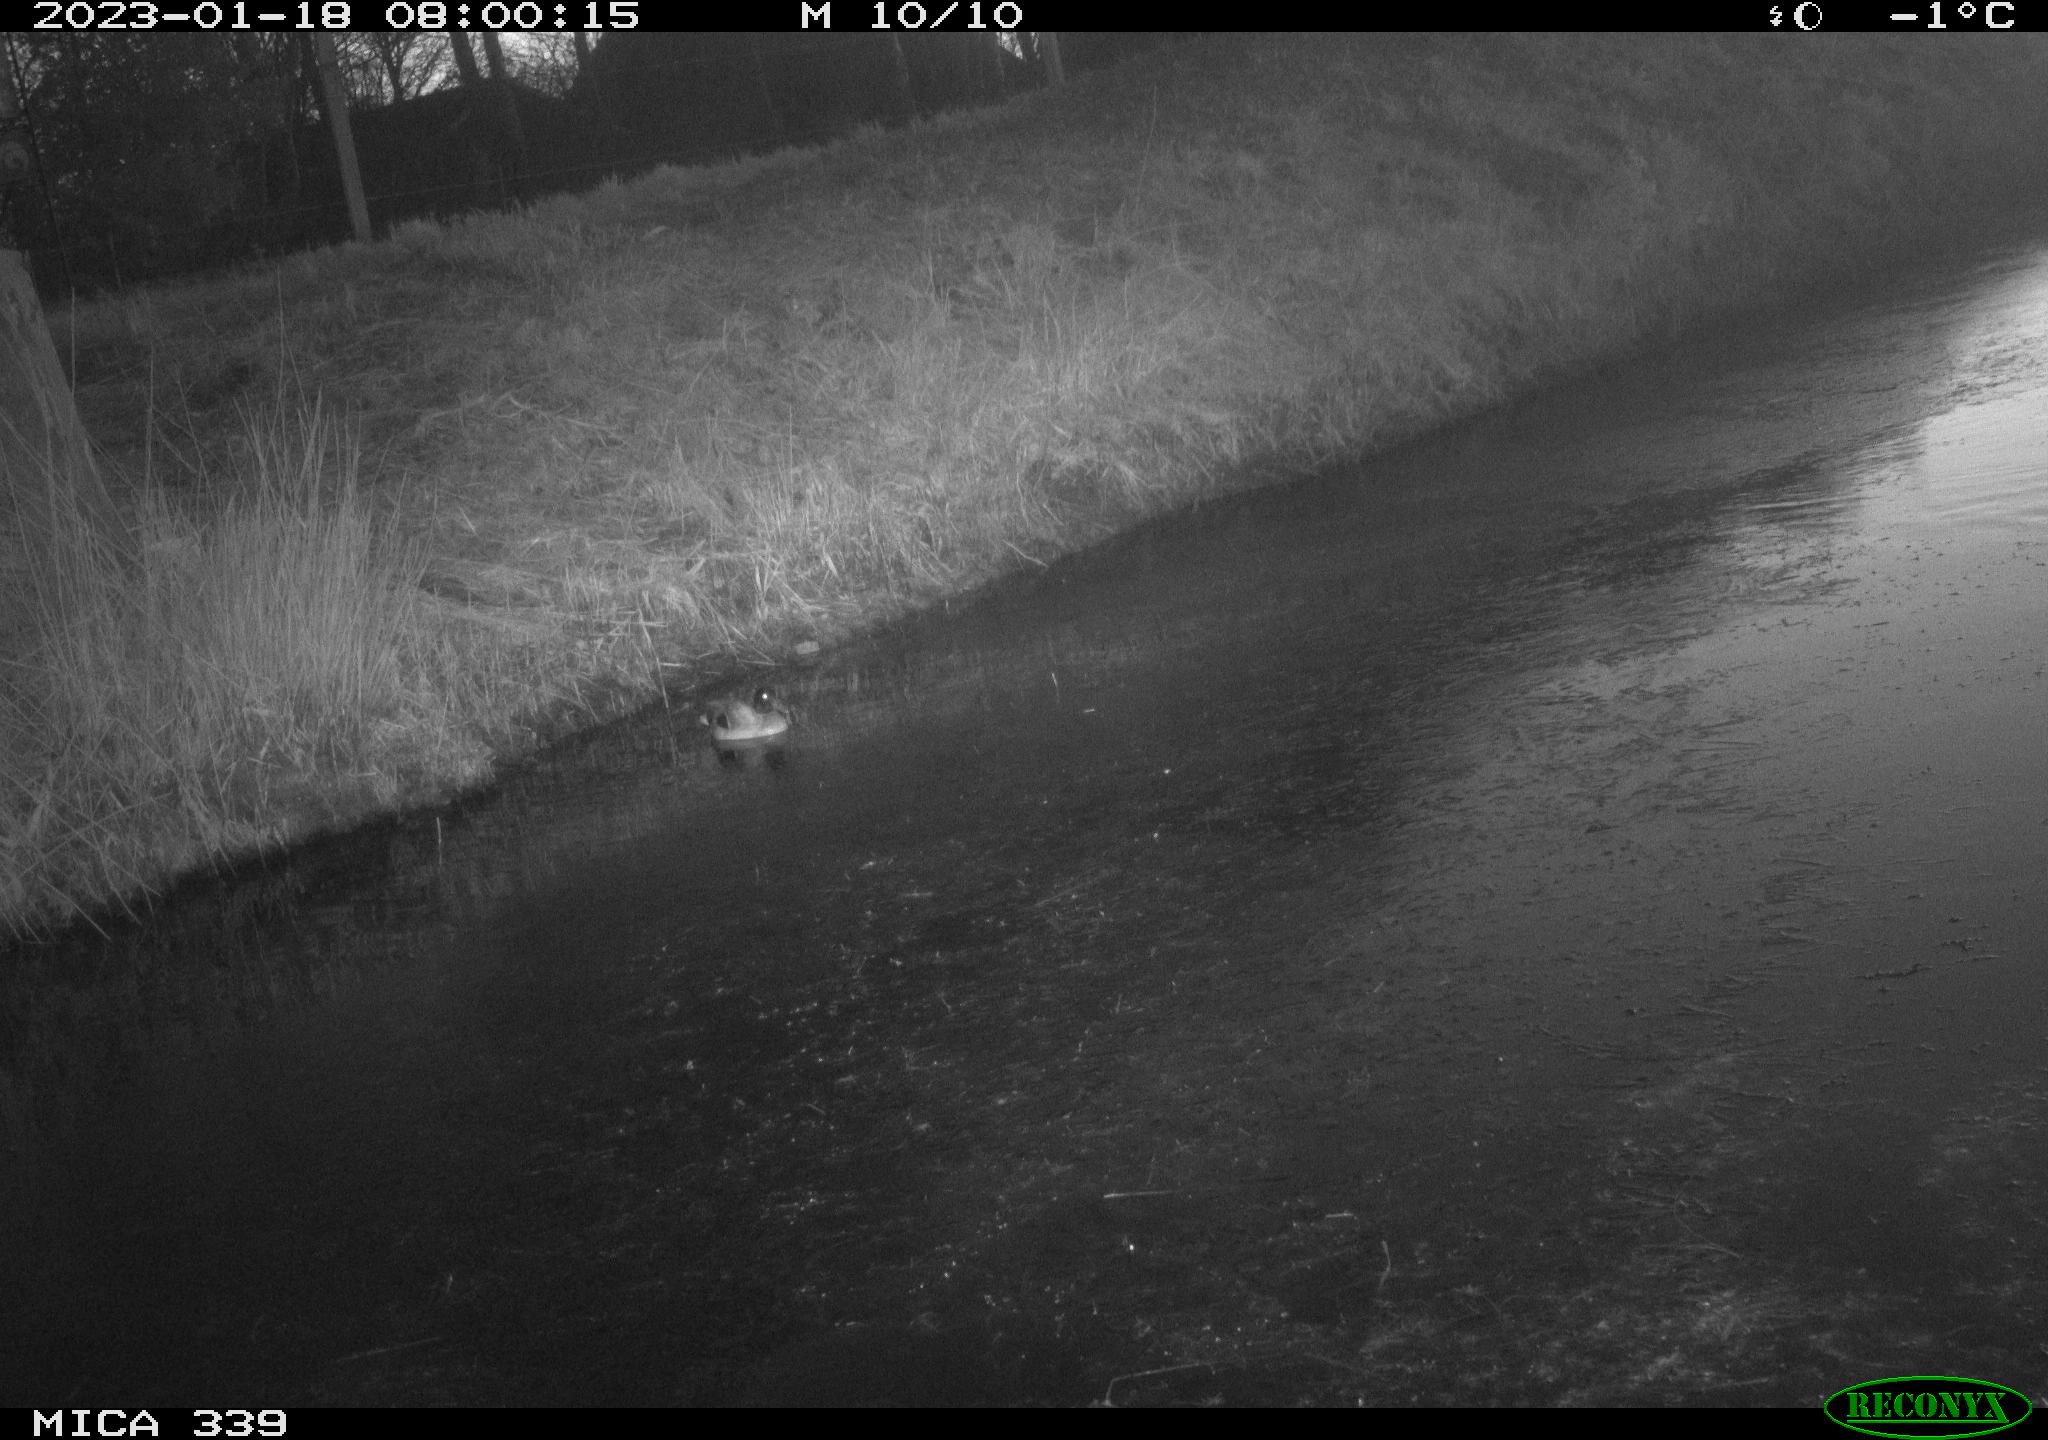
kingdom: Animalia
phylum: Chordata
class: Aves
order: Anseriformes
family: Anatidae
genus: Anas
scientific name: Anas
